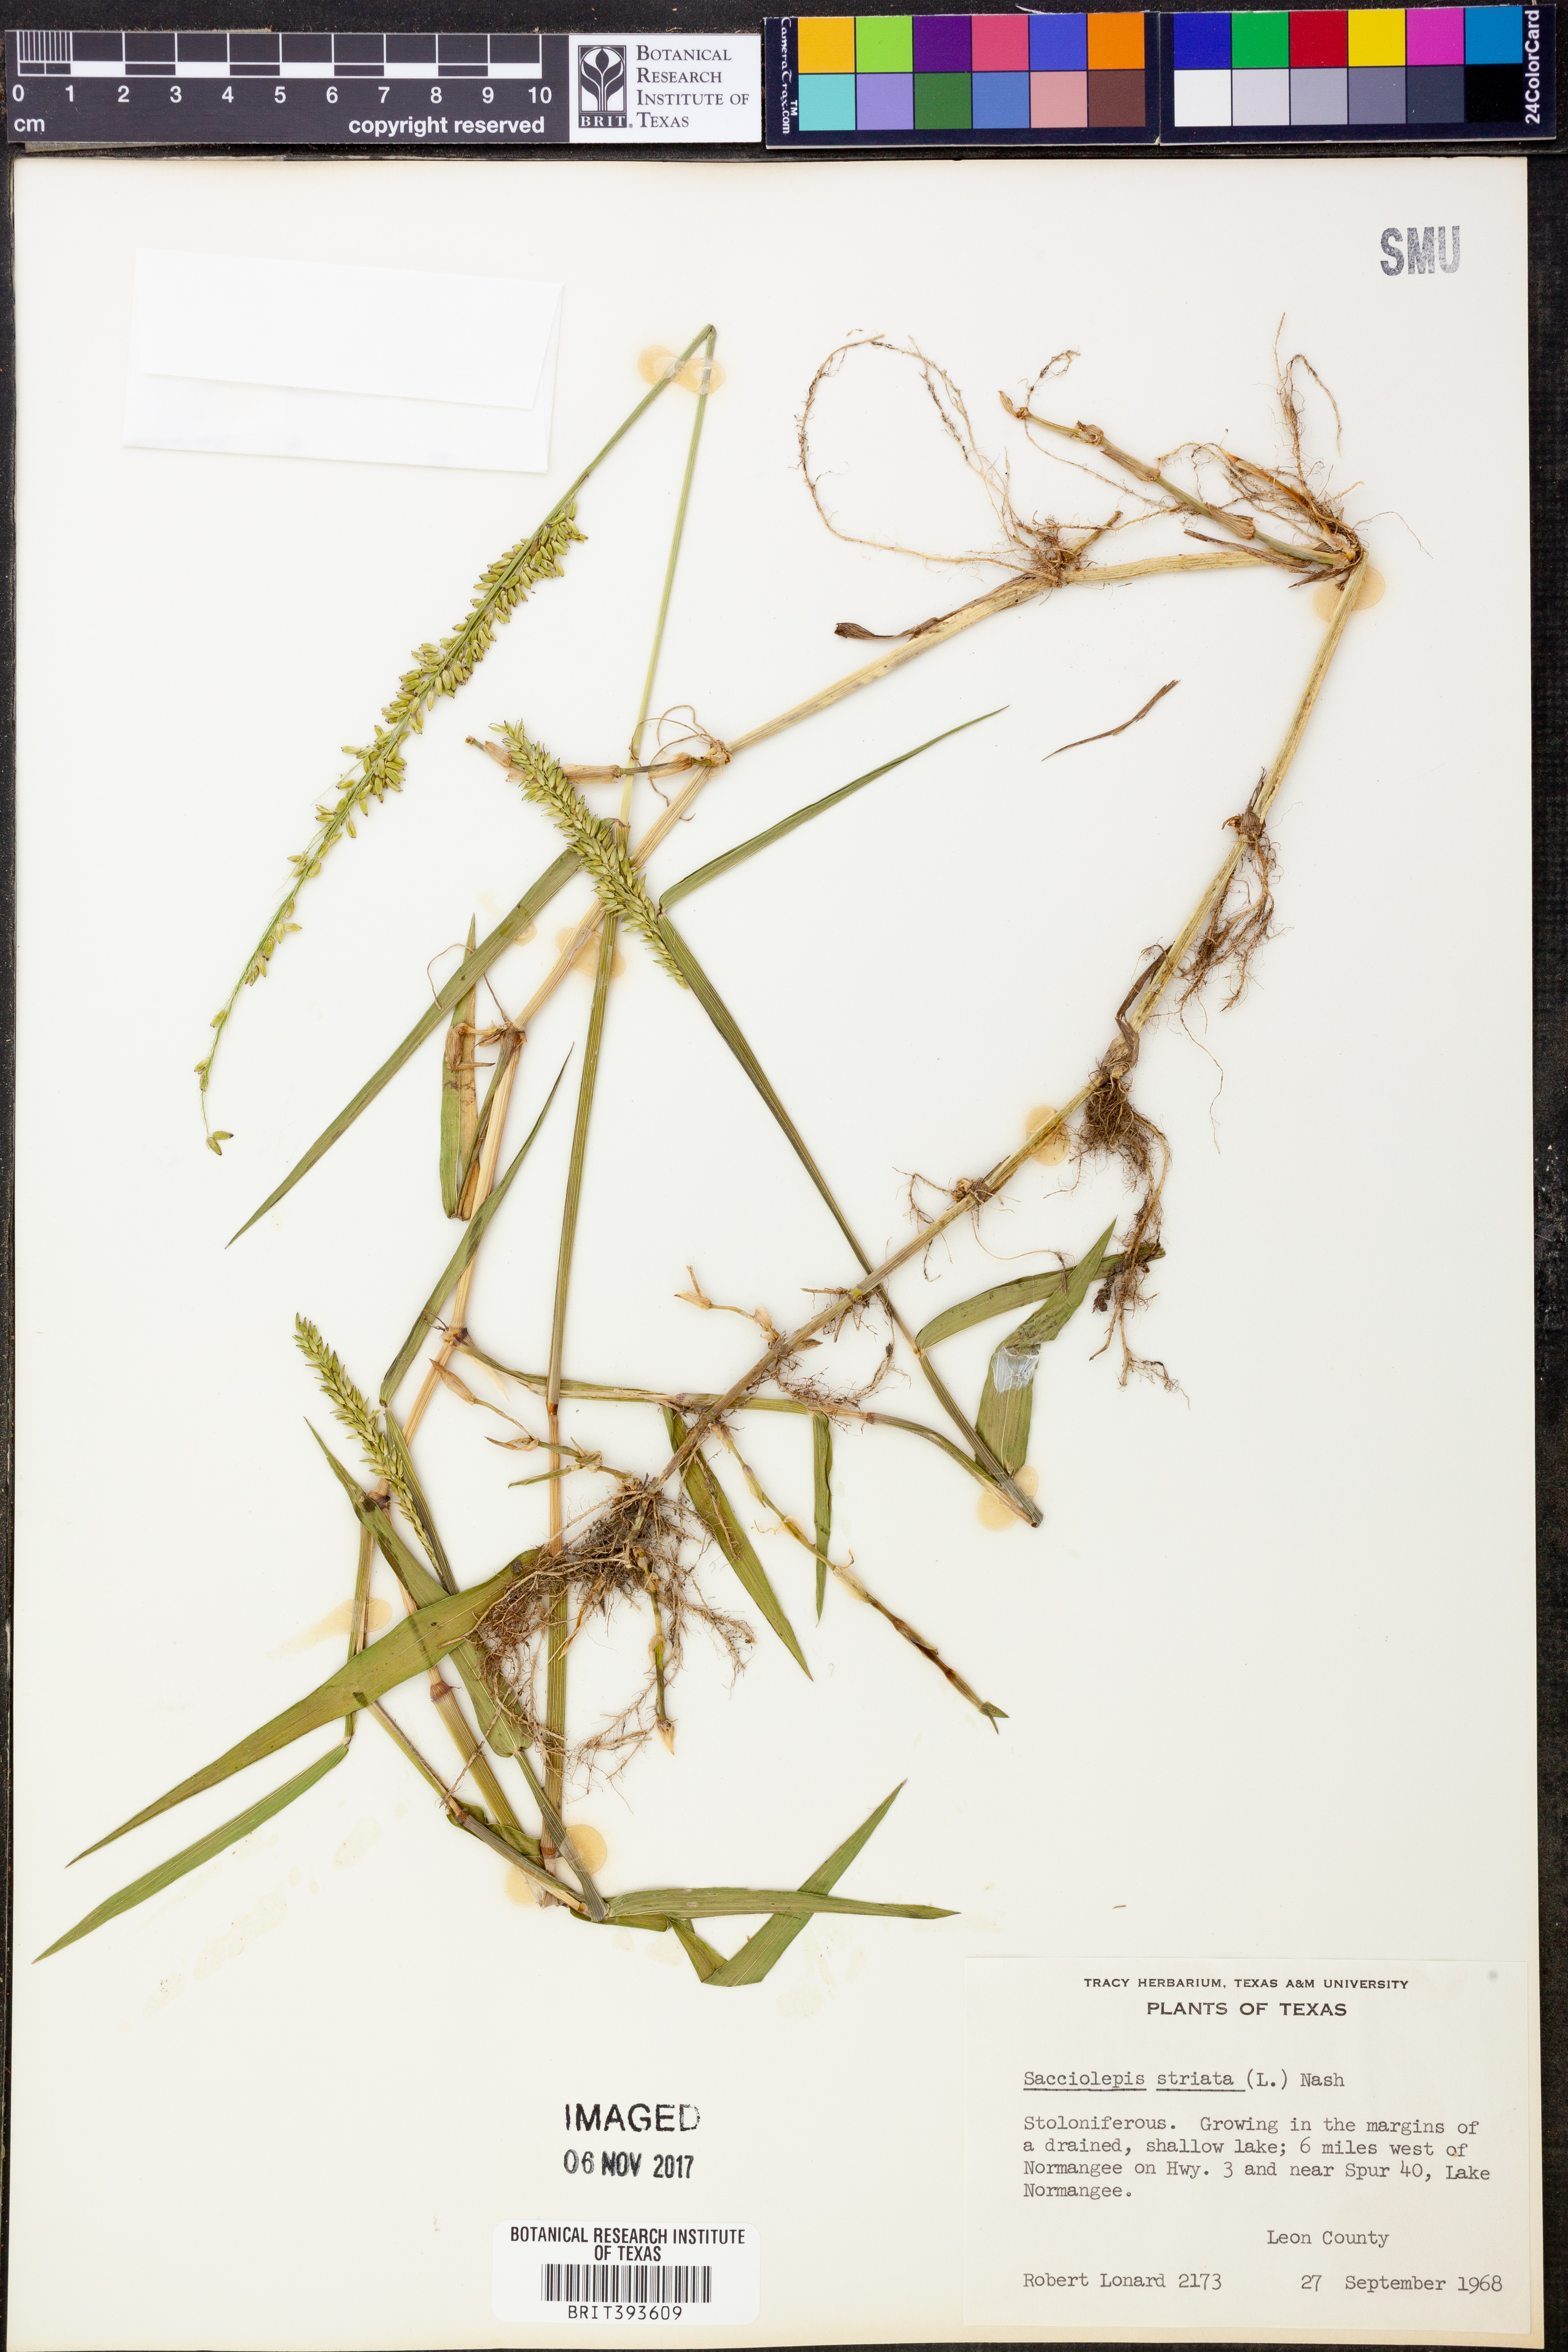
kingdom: Plantae
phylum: Tracheophyta
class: Liliopsida
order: Poales
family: Poaceae
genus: Sacciolepis
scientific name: Sacciolepis striata
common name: American cupscale
